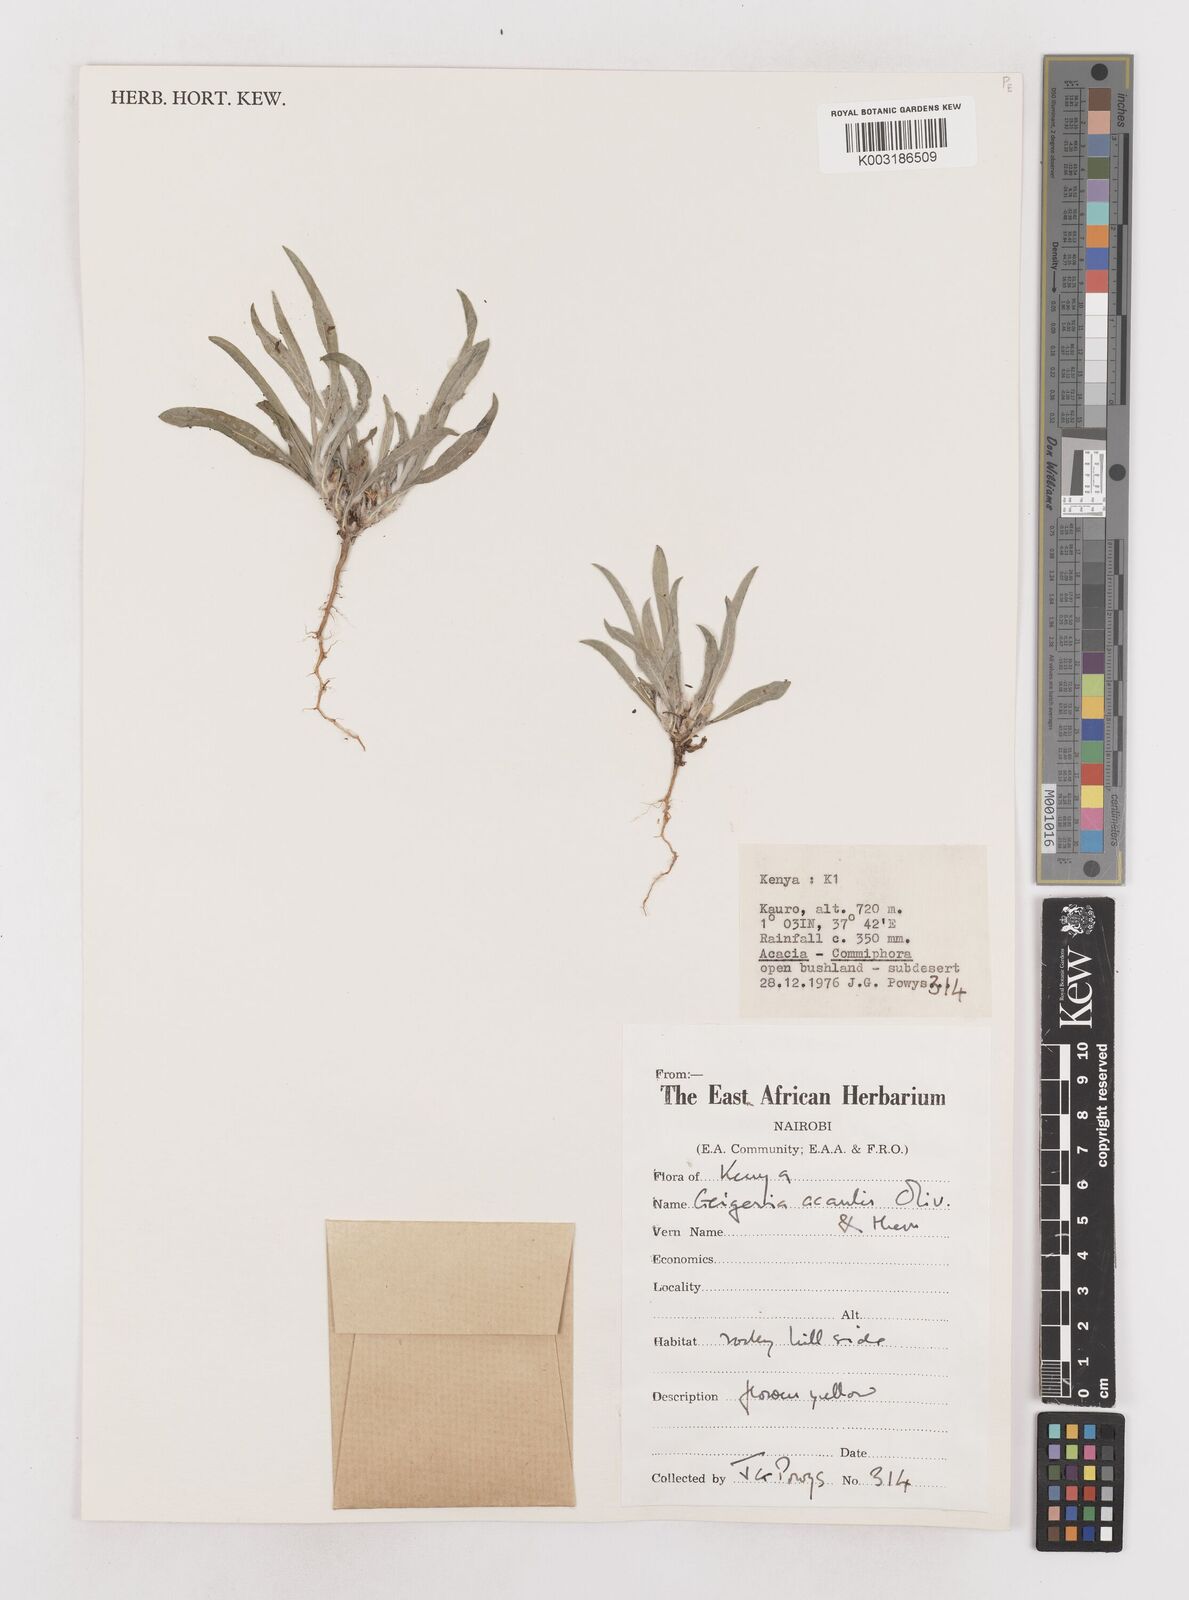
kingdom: Plantae
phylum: Tracheophyta
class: Magnoliopsida
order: Asterales
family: Asteraceae
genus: Geigeria
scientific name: Geigeria acaulis
